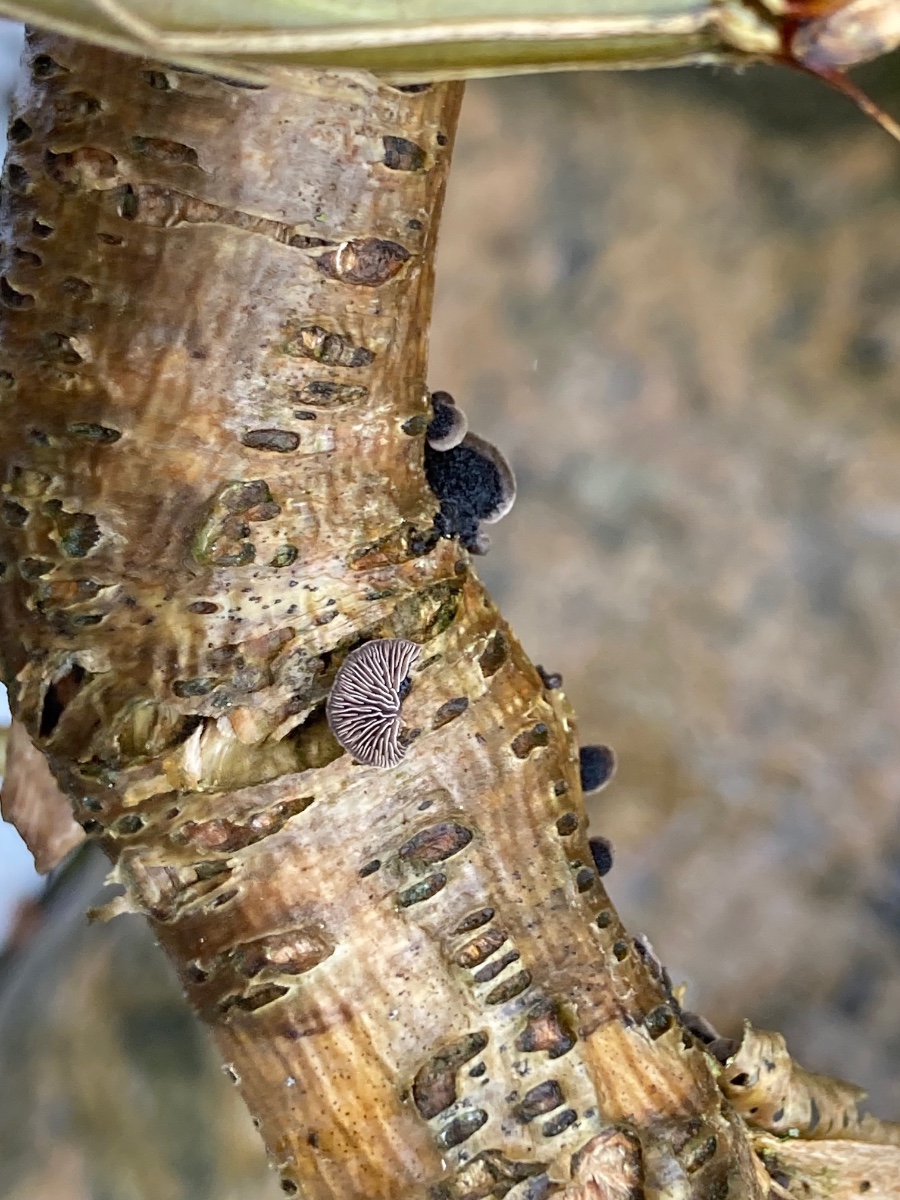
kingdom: Fungi
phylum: Basidiomycota
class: Agaricomycetes
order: Agaricales
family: Pleurotaceae
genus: Resupinatus
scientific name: Resupinatus trichotis
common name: mørkfiltet barkhat
